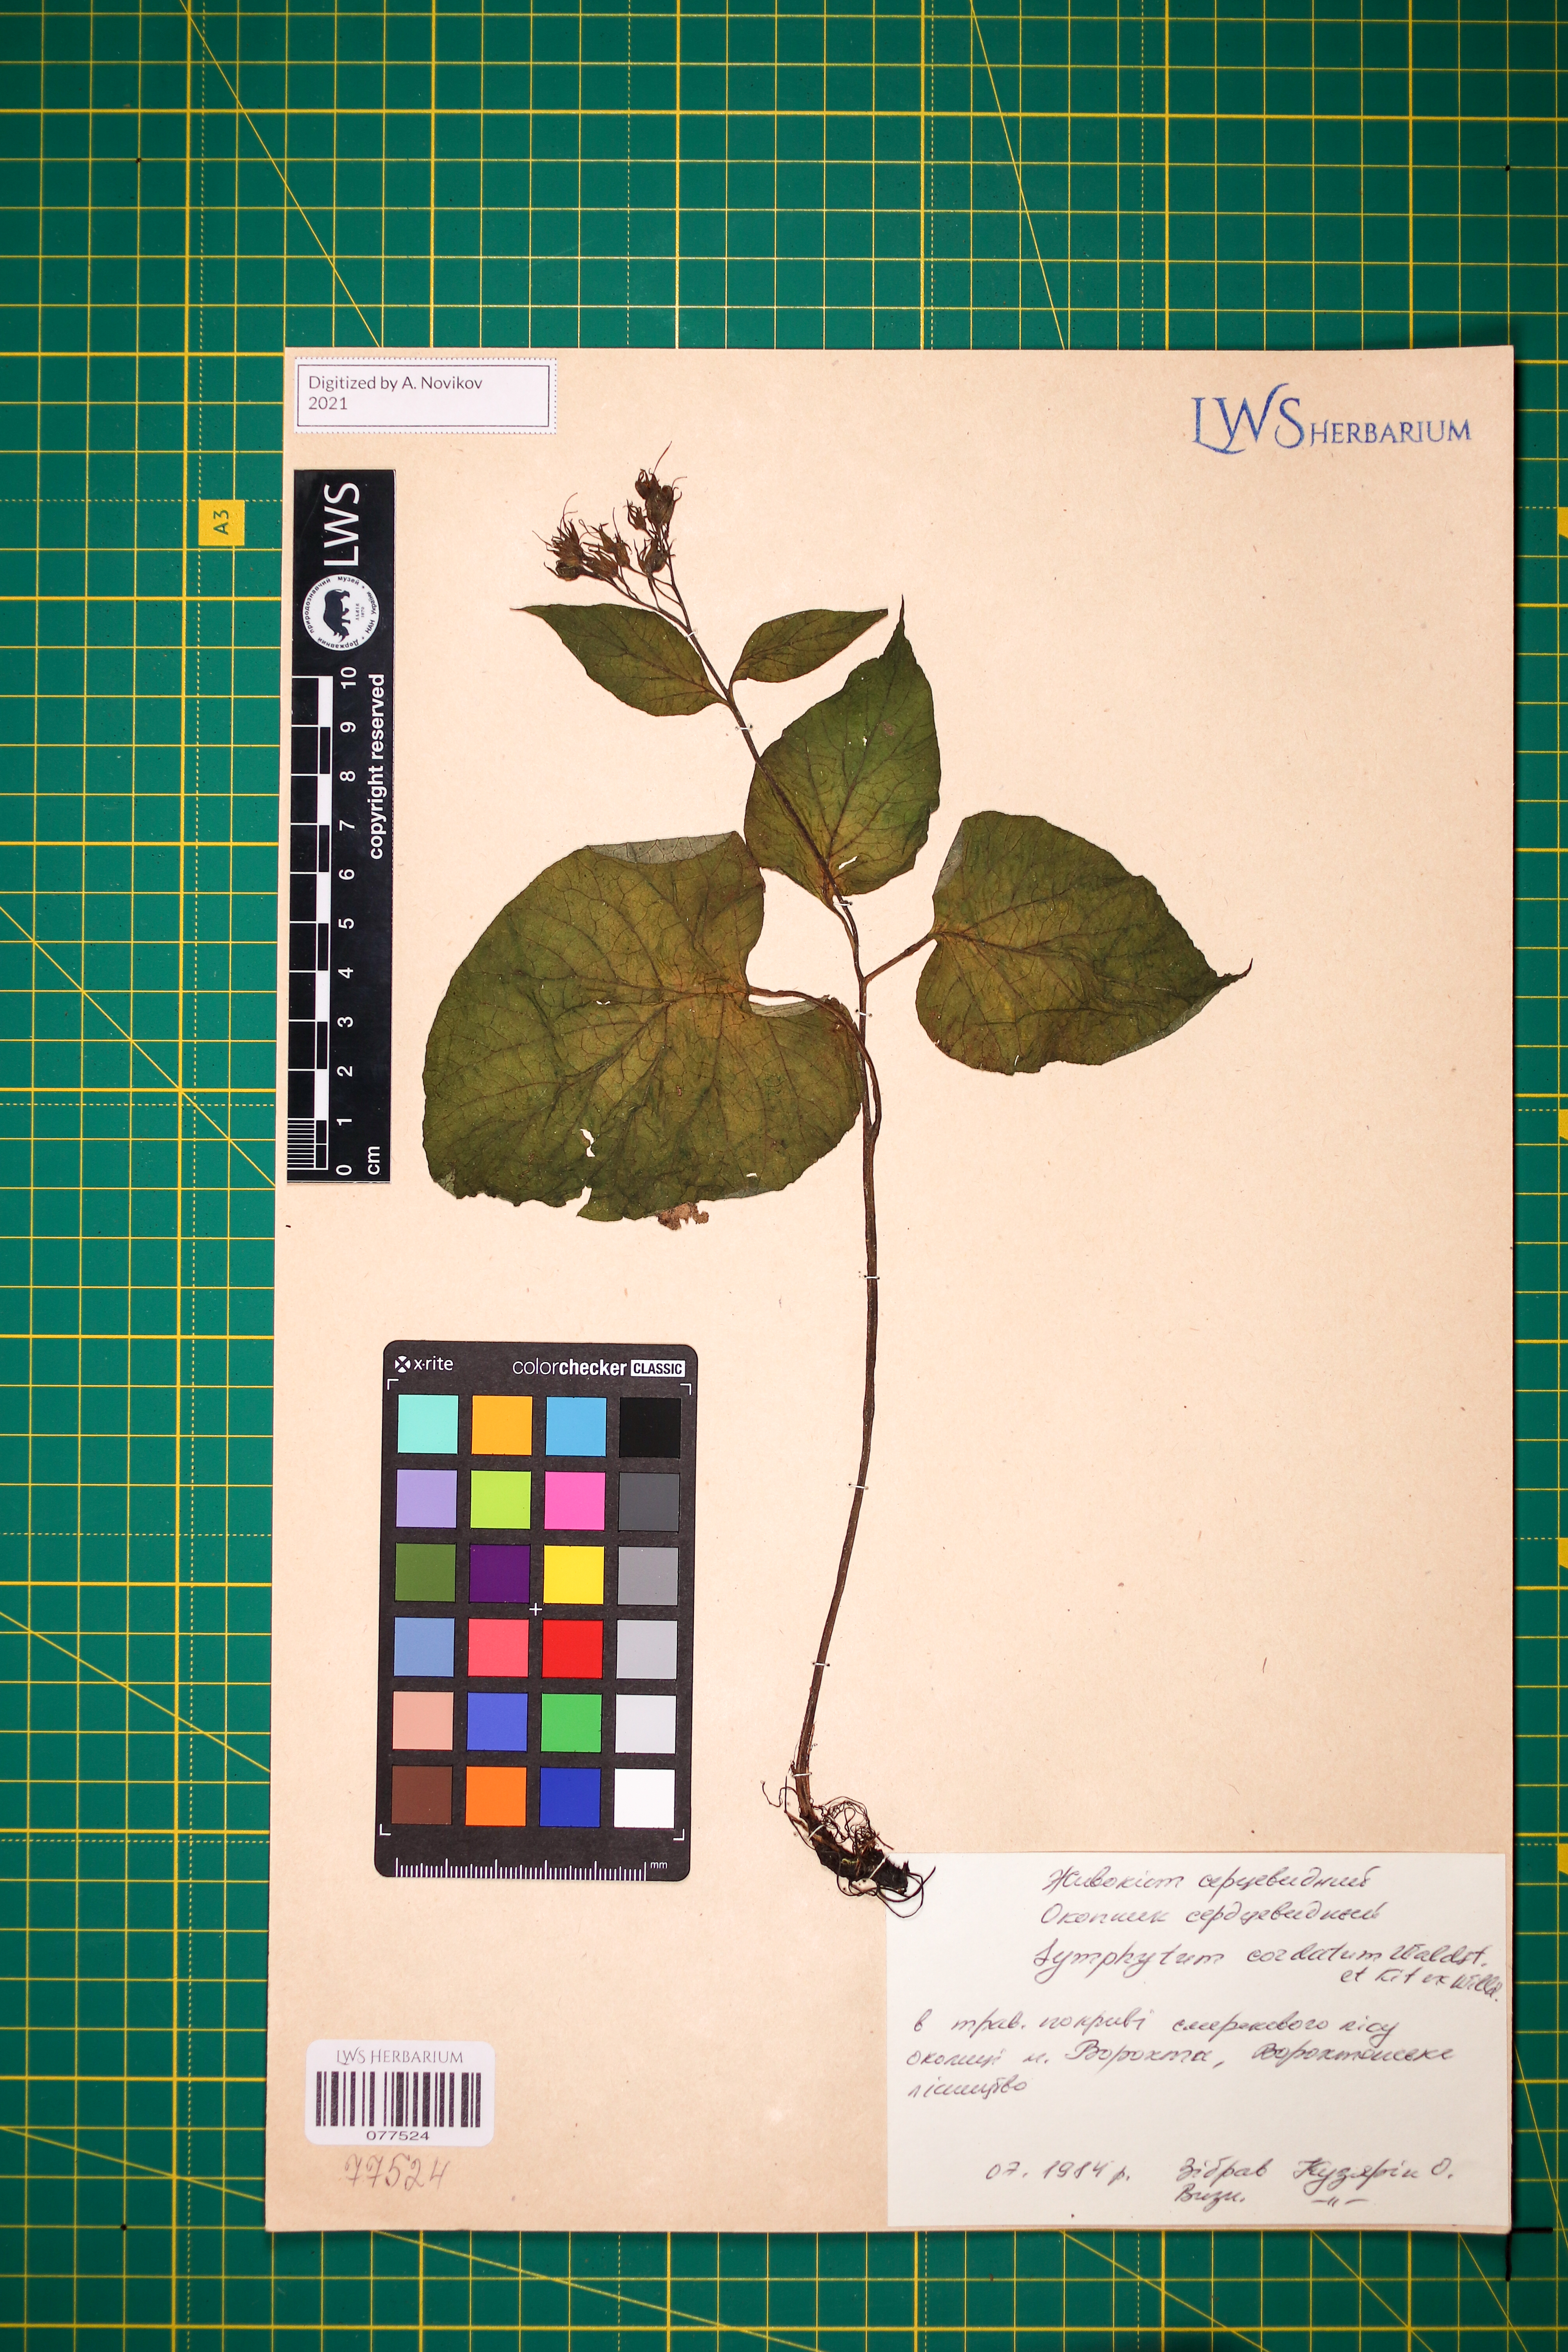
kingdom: Plantae
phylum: Tracheophyta
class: Magnoliopsida
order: Boraginales
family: Boraginaceae
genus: Symphytum
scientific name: Symphytum cordatum
